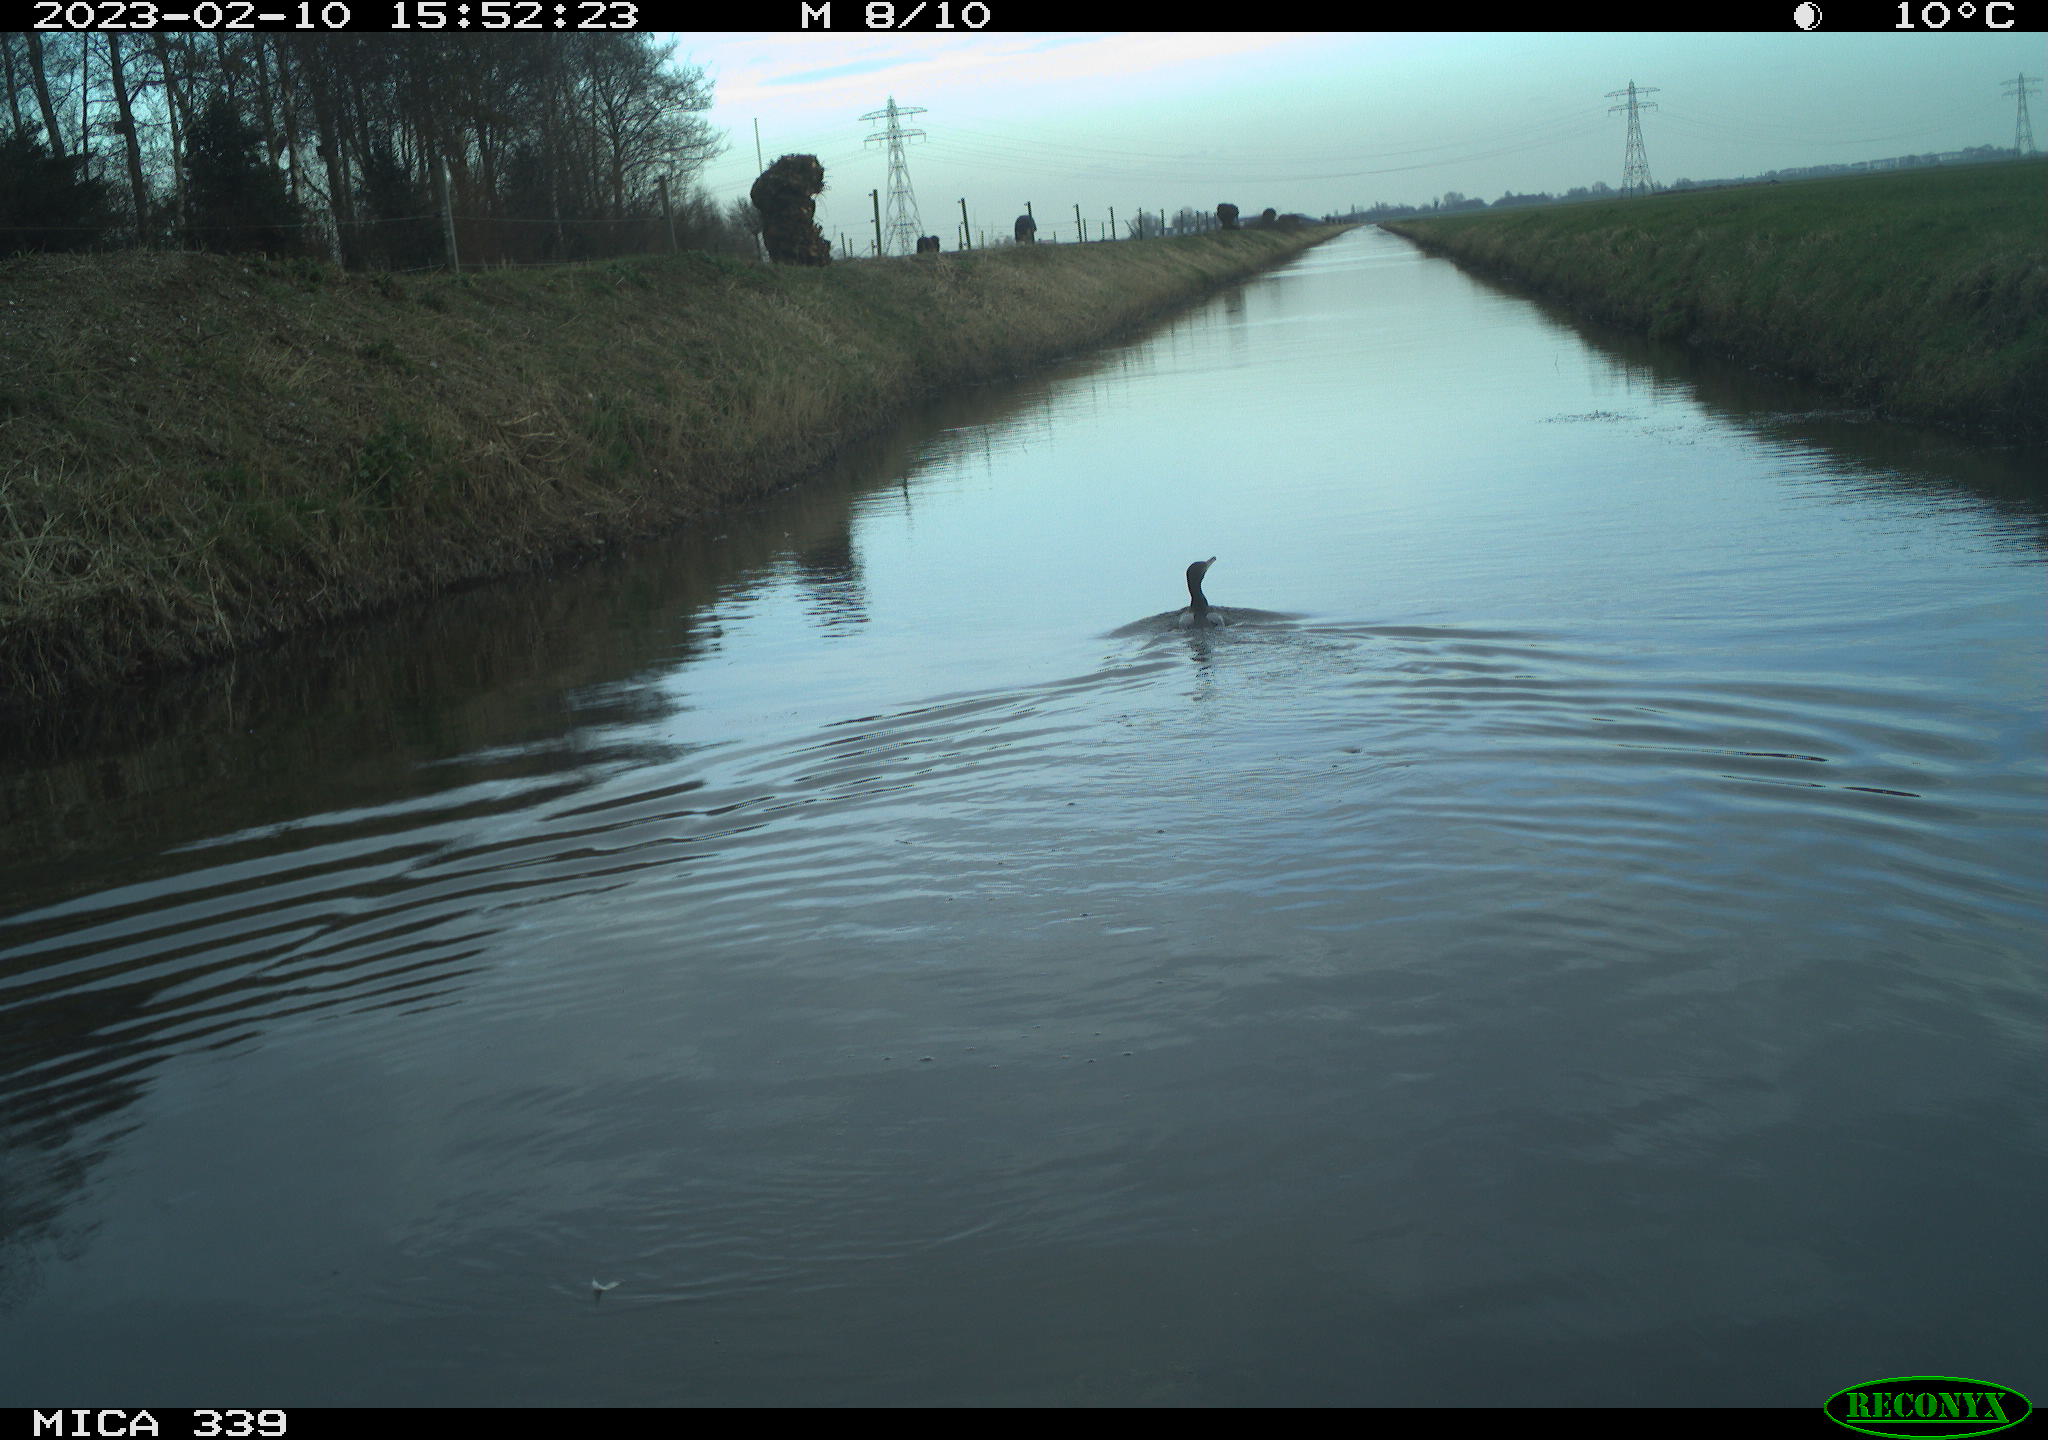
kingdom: Animalia
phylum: Chordata
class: Aves
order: Suliformes
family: Phalacrocoracidae
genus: Phalacrocorax
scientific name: Phalacrocorax carbo
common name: Great cormorant
